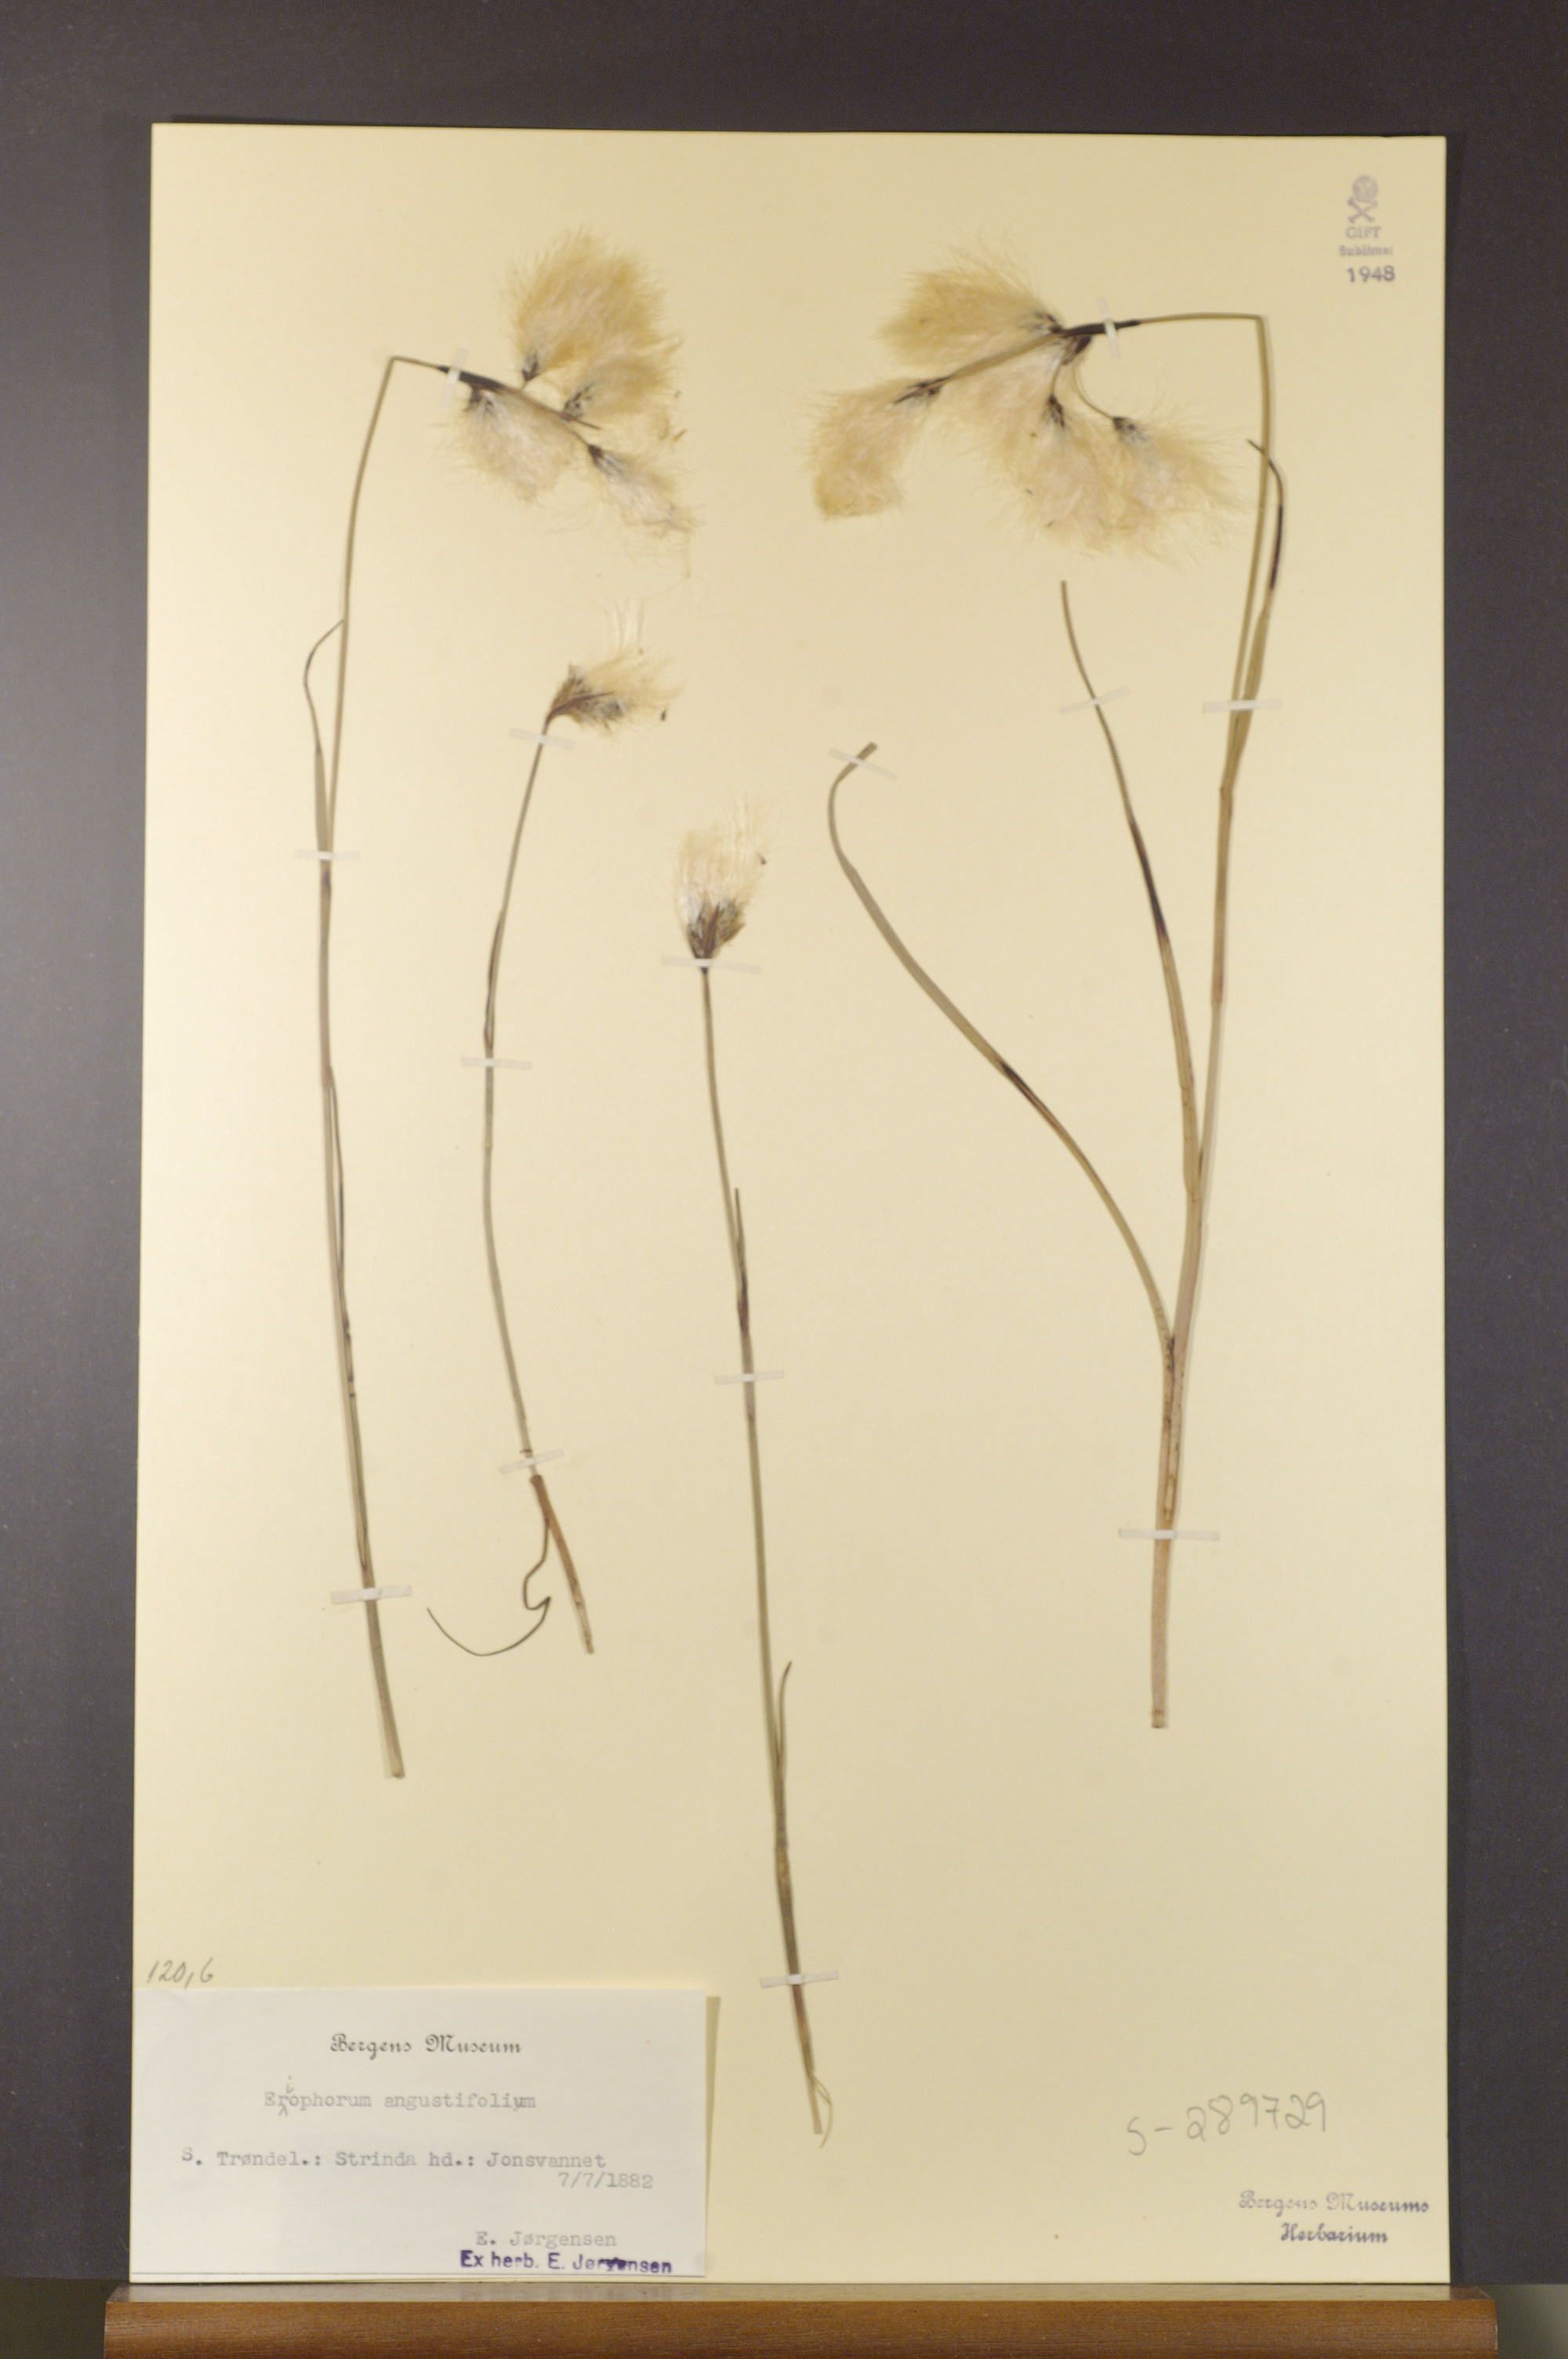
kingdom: Plantae
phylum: Tracheophyta
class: Liliopsida
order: Poales
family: Cyperaceae
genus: Eriophorum
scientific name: Eriophorum angustifolium
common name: Common cottongrass
